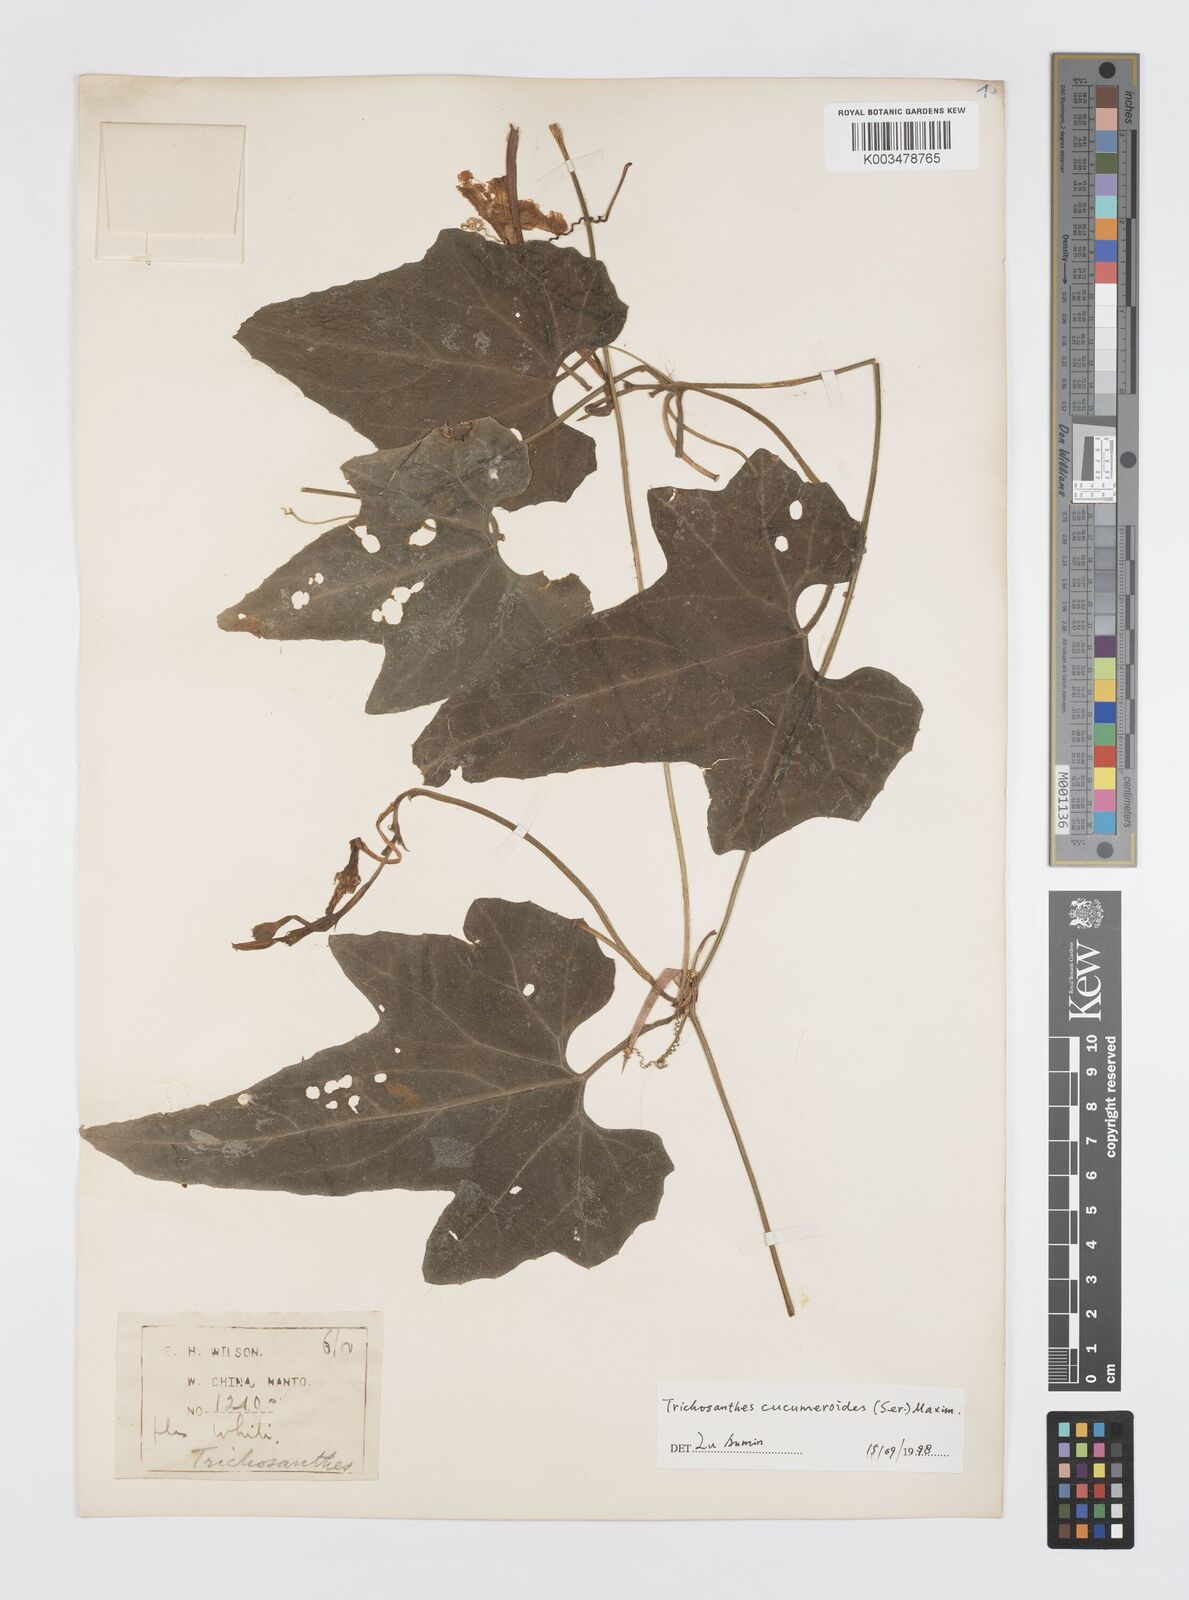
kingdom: Plantae
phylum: Tracheophyta
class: Magnoliopsida
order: Cucurbitales
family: Cucurbitaceae
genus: Trichosanthes
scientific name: Trichosanthes ovigera
